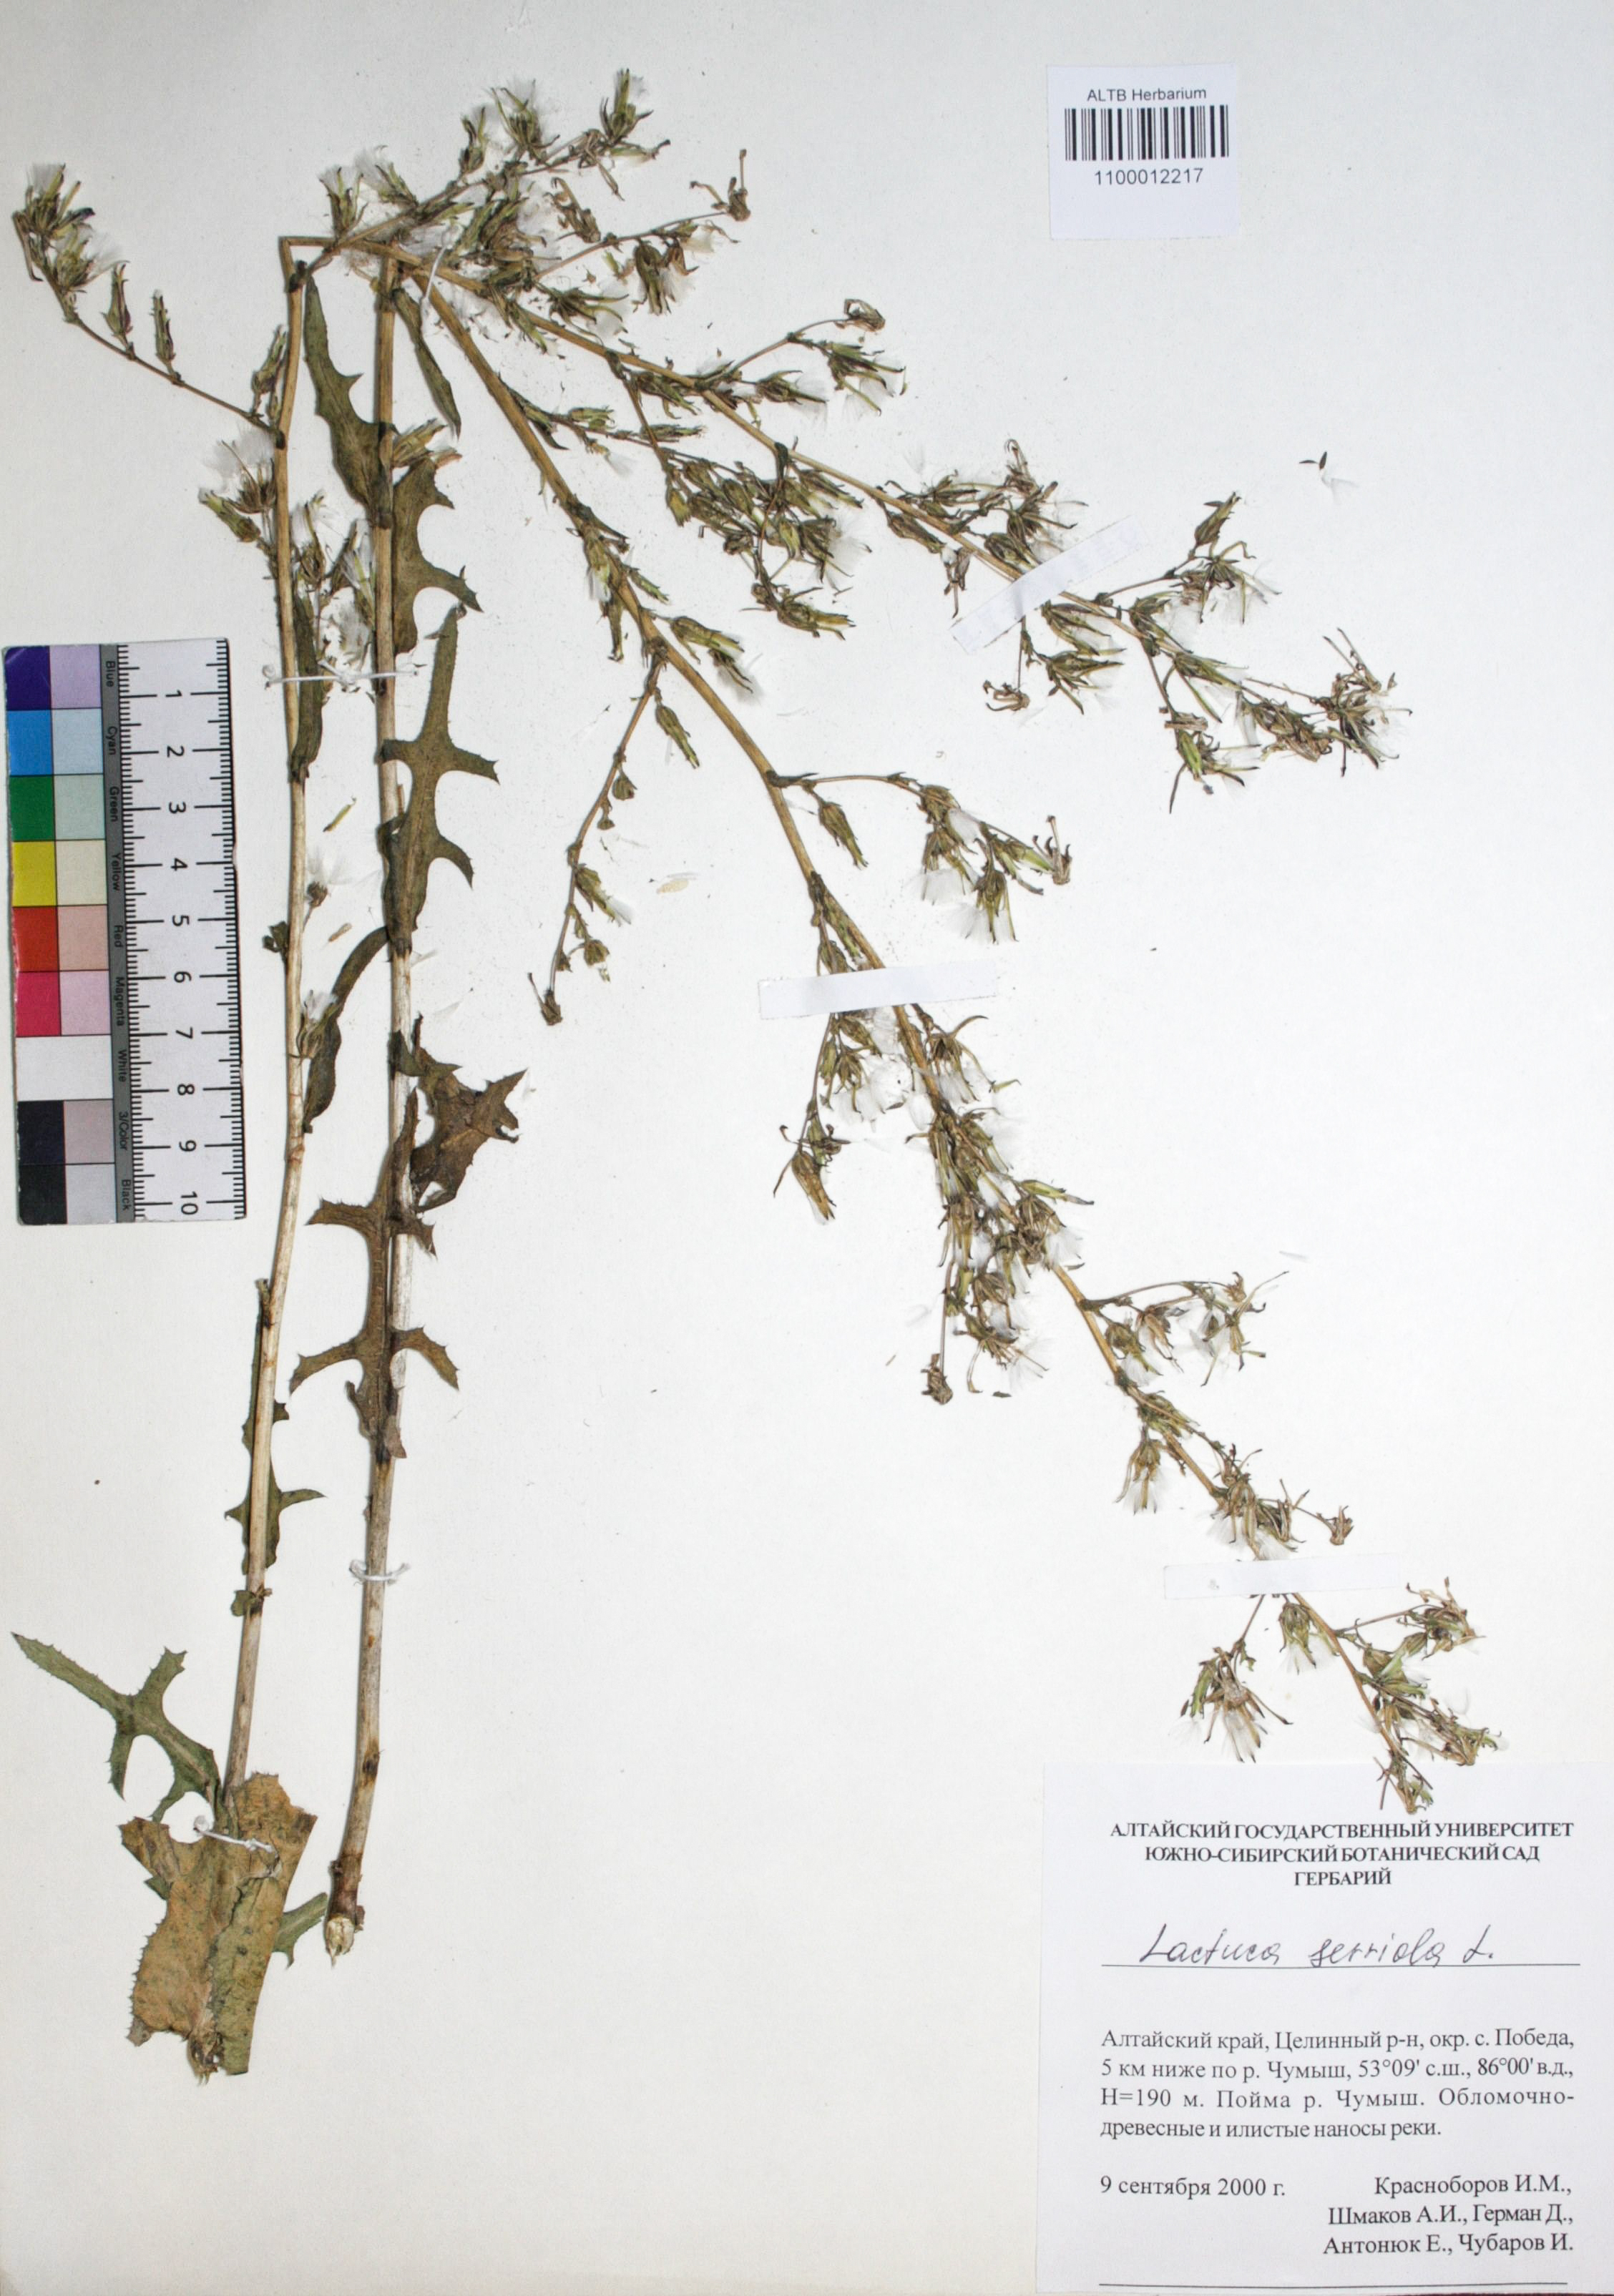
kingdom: Plantae
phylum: Tracheophyta
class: Magnoliopsida
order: Asterales
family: Asteraceae
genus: Lactuca
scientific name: Lactuca serriola
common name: Prickly lettuce
